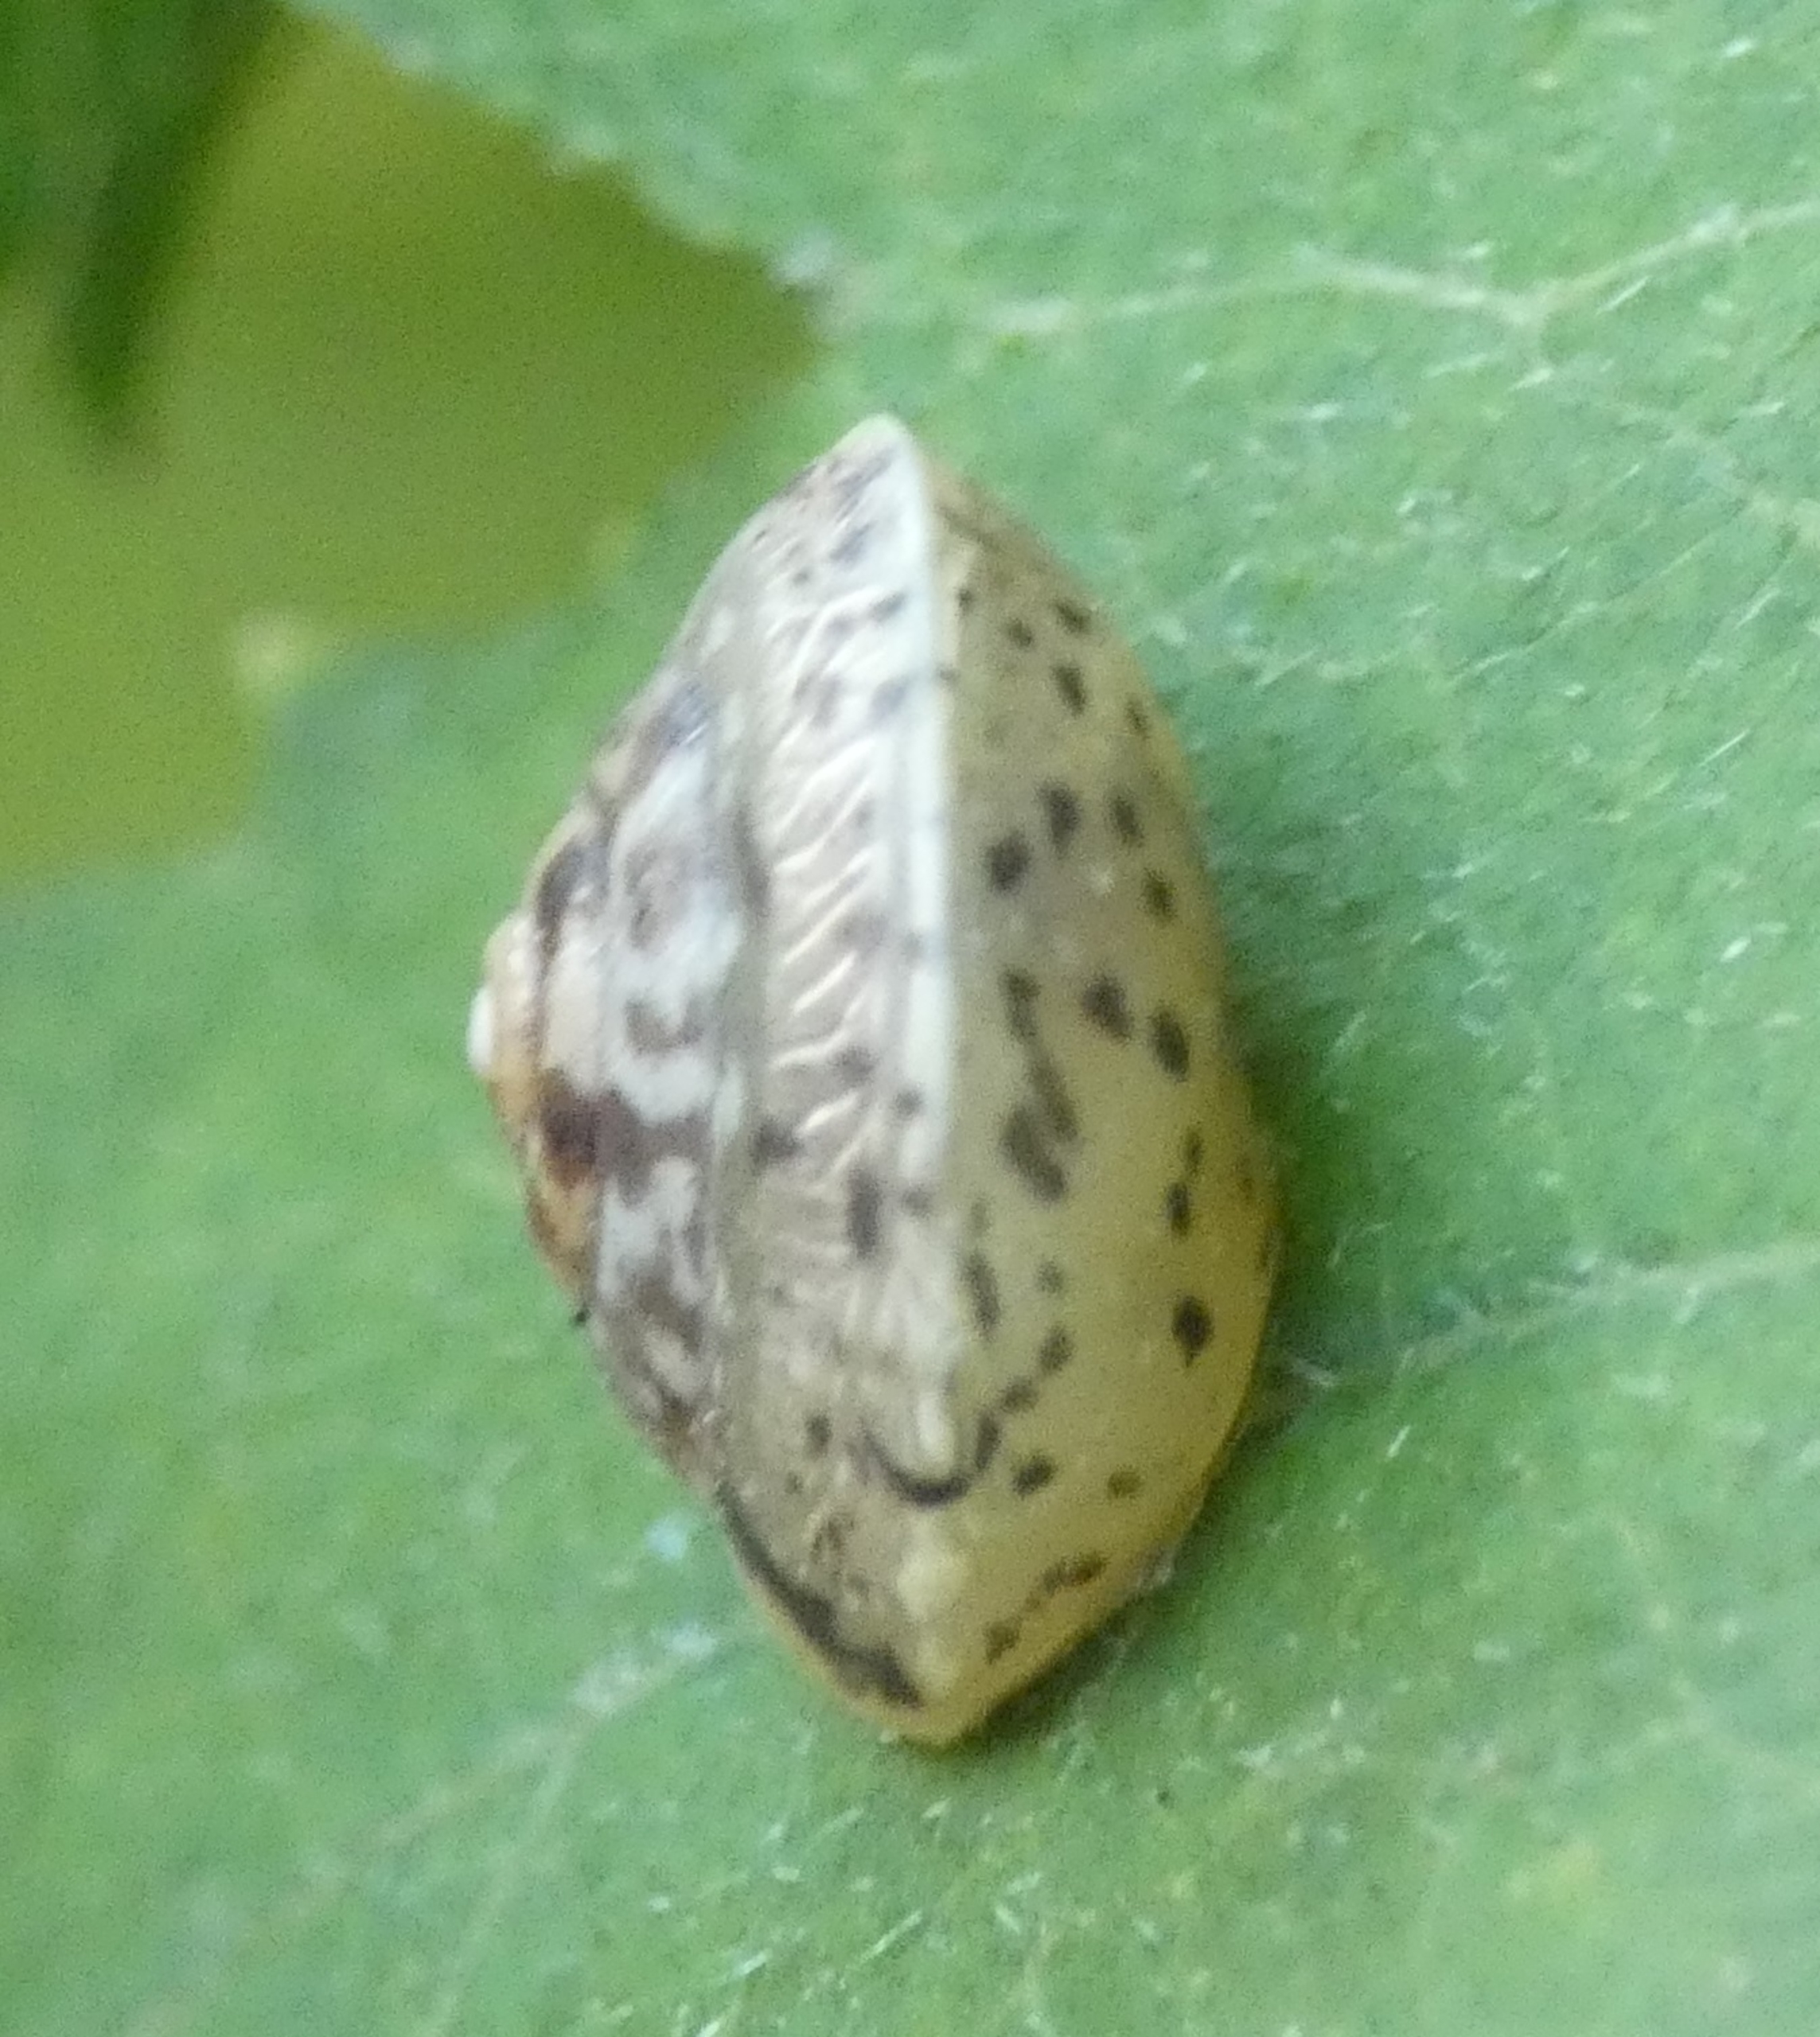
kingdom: Animalia
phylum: Mollusca
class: Gastropoda
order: Stylommatophora
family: Hygromiidae
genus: Hygromia
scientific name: Hygromia cinctella
